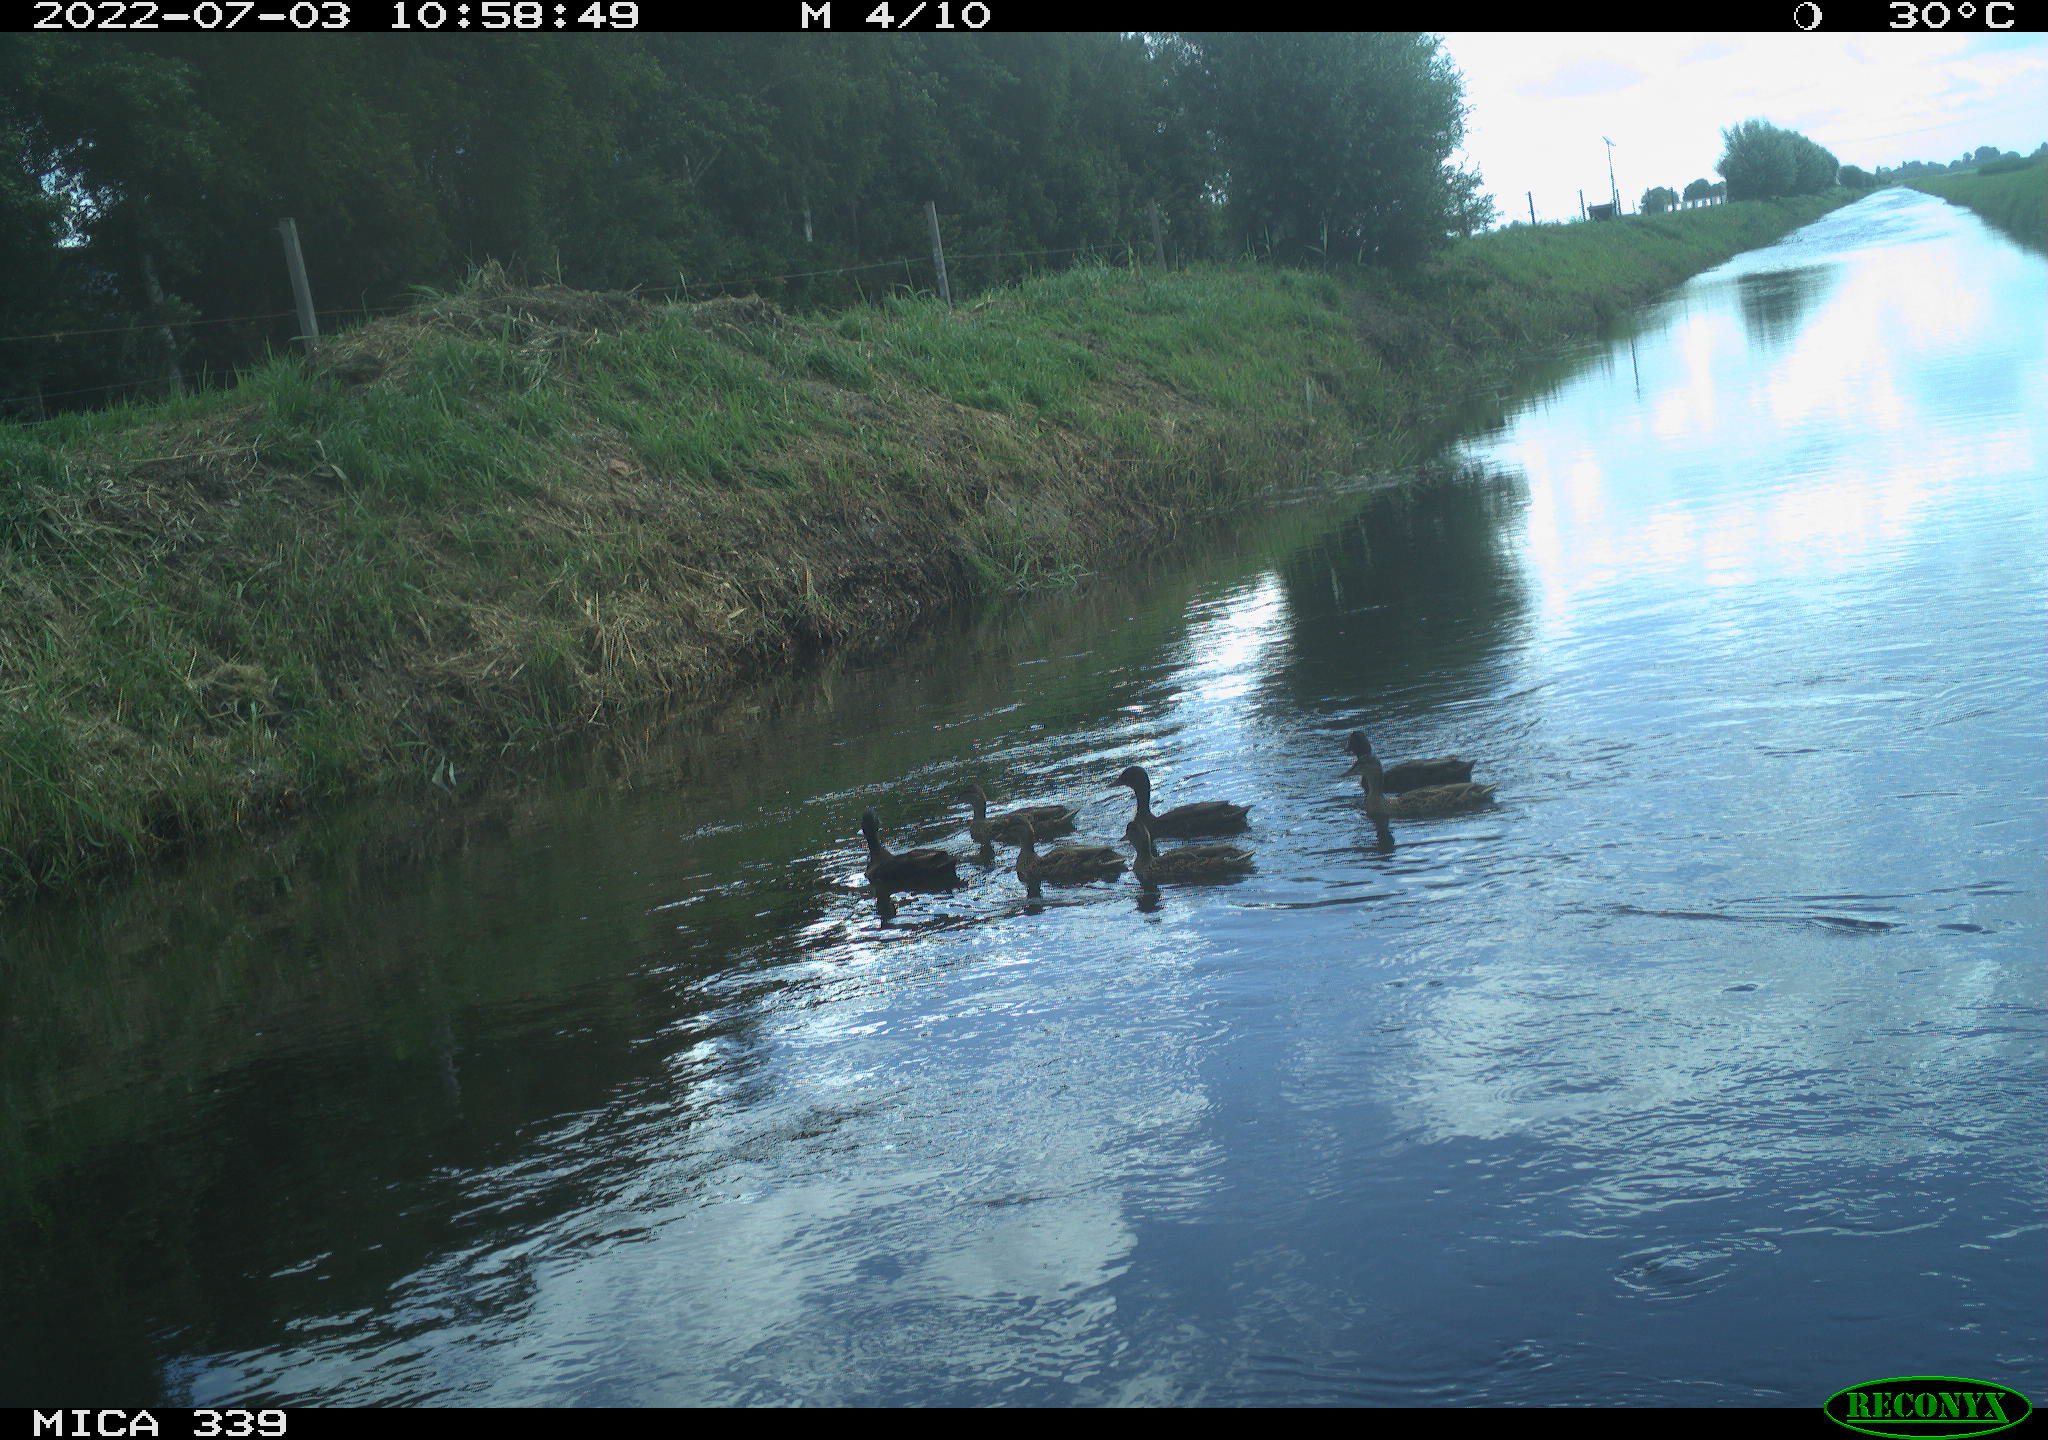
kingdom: Animalia
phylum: Chordata
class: Aves
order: Anseriformes
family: Anatidae
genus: Anas
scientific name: Anas platyrhynchos
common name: Mallard
